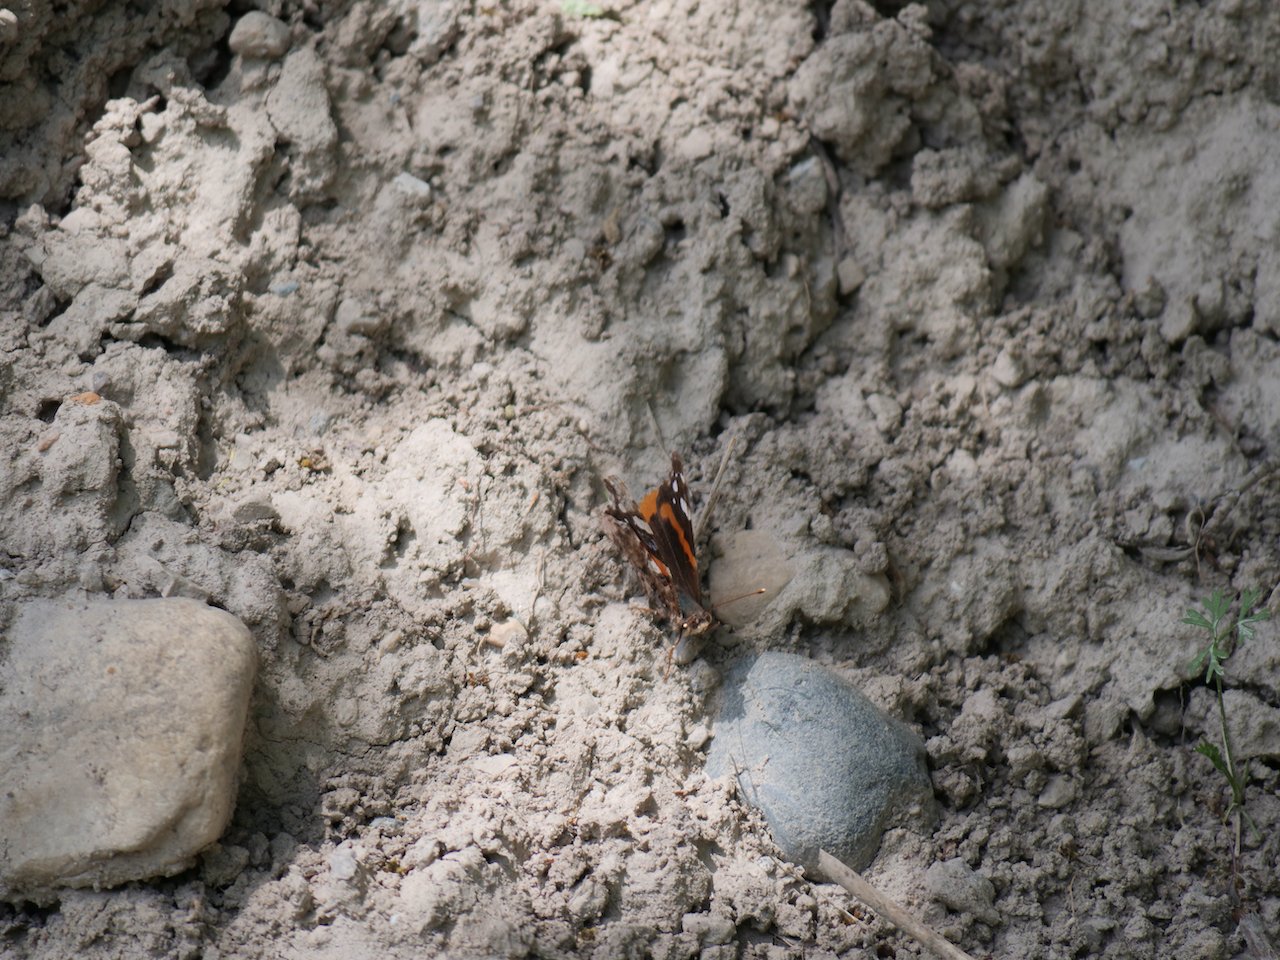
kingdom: Animalia
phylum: Arthropoda
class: Insecta
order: Lepidoptera
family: Nymphalidae
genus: Vanessa
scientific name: Vanessa atalanta
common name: Red Admiral
